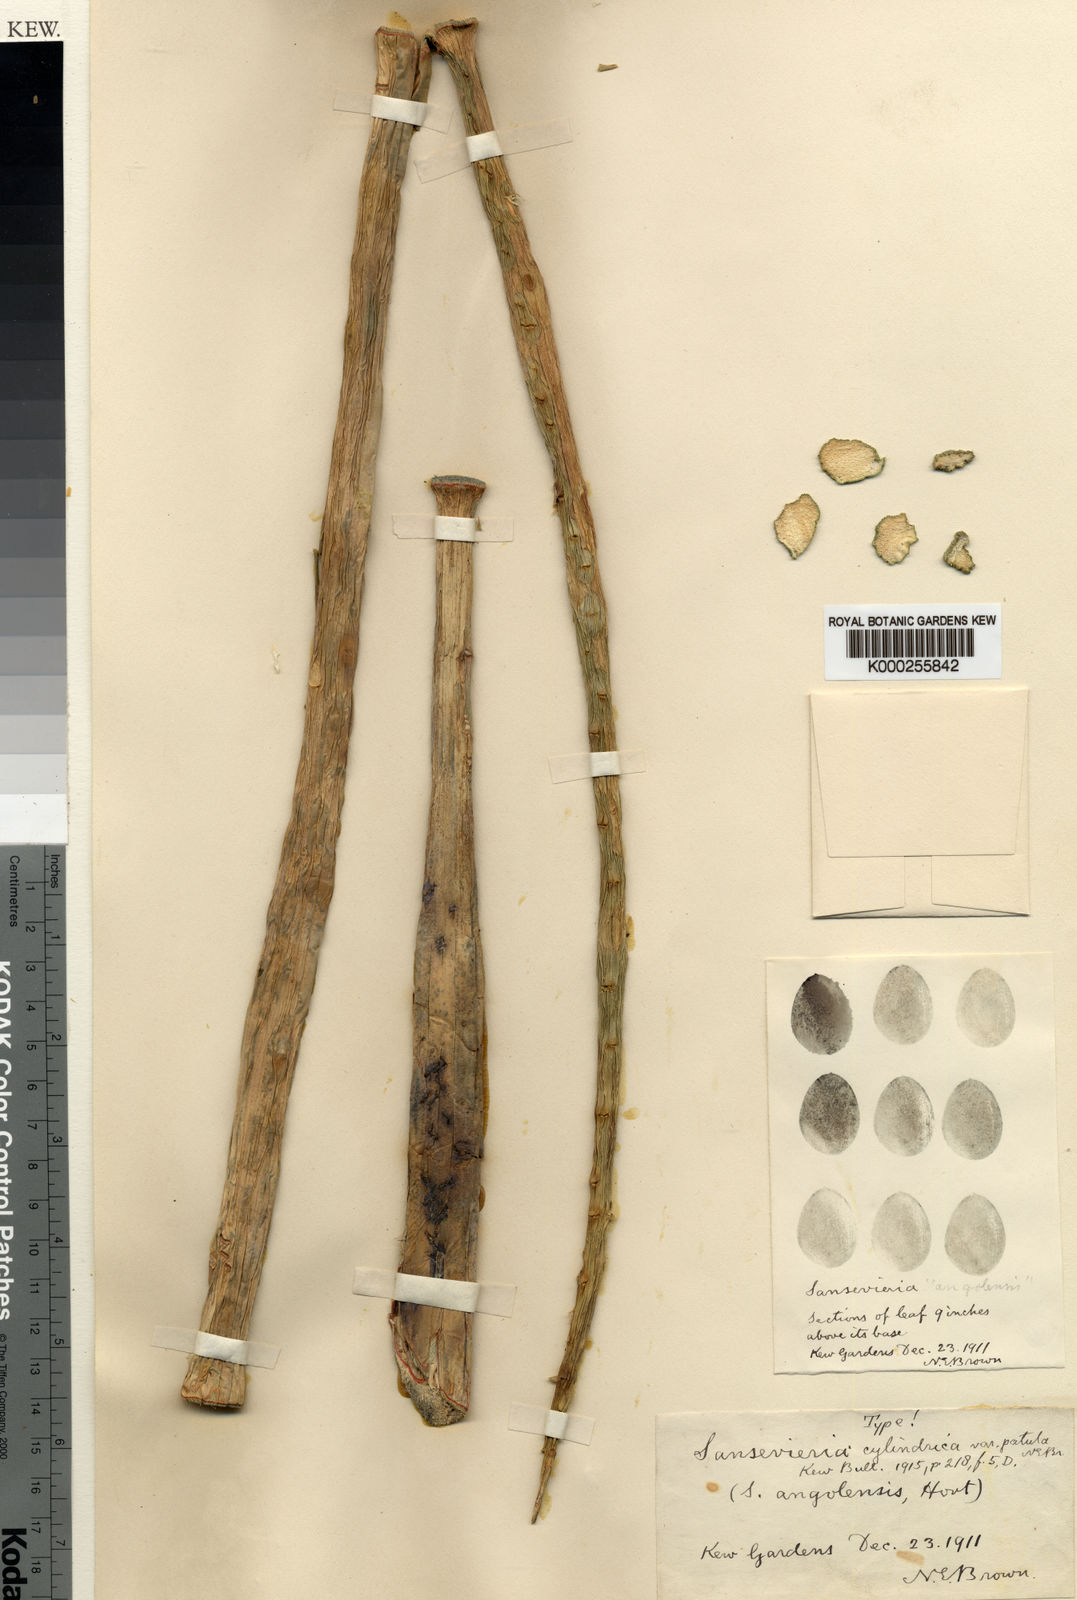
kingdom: Plantae
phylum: Tracheophyta
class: Liliopsida
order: Asparagales
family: Asparagaceae
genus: Dracaena
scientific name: Dracaena angolensis
